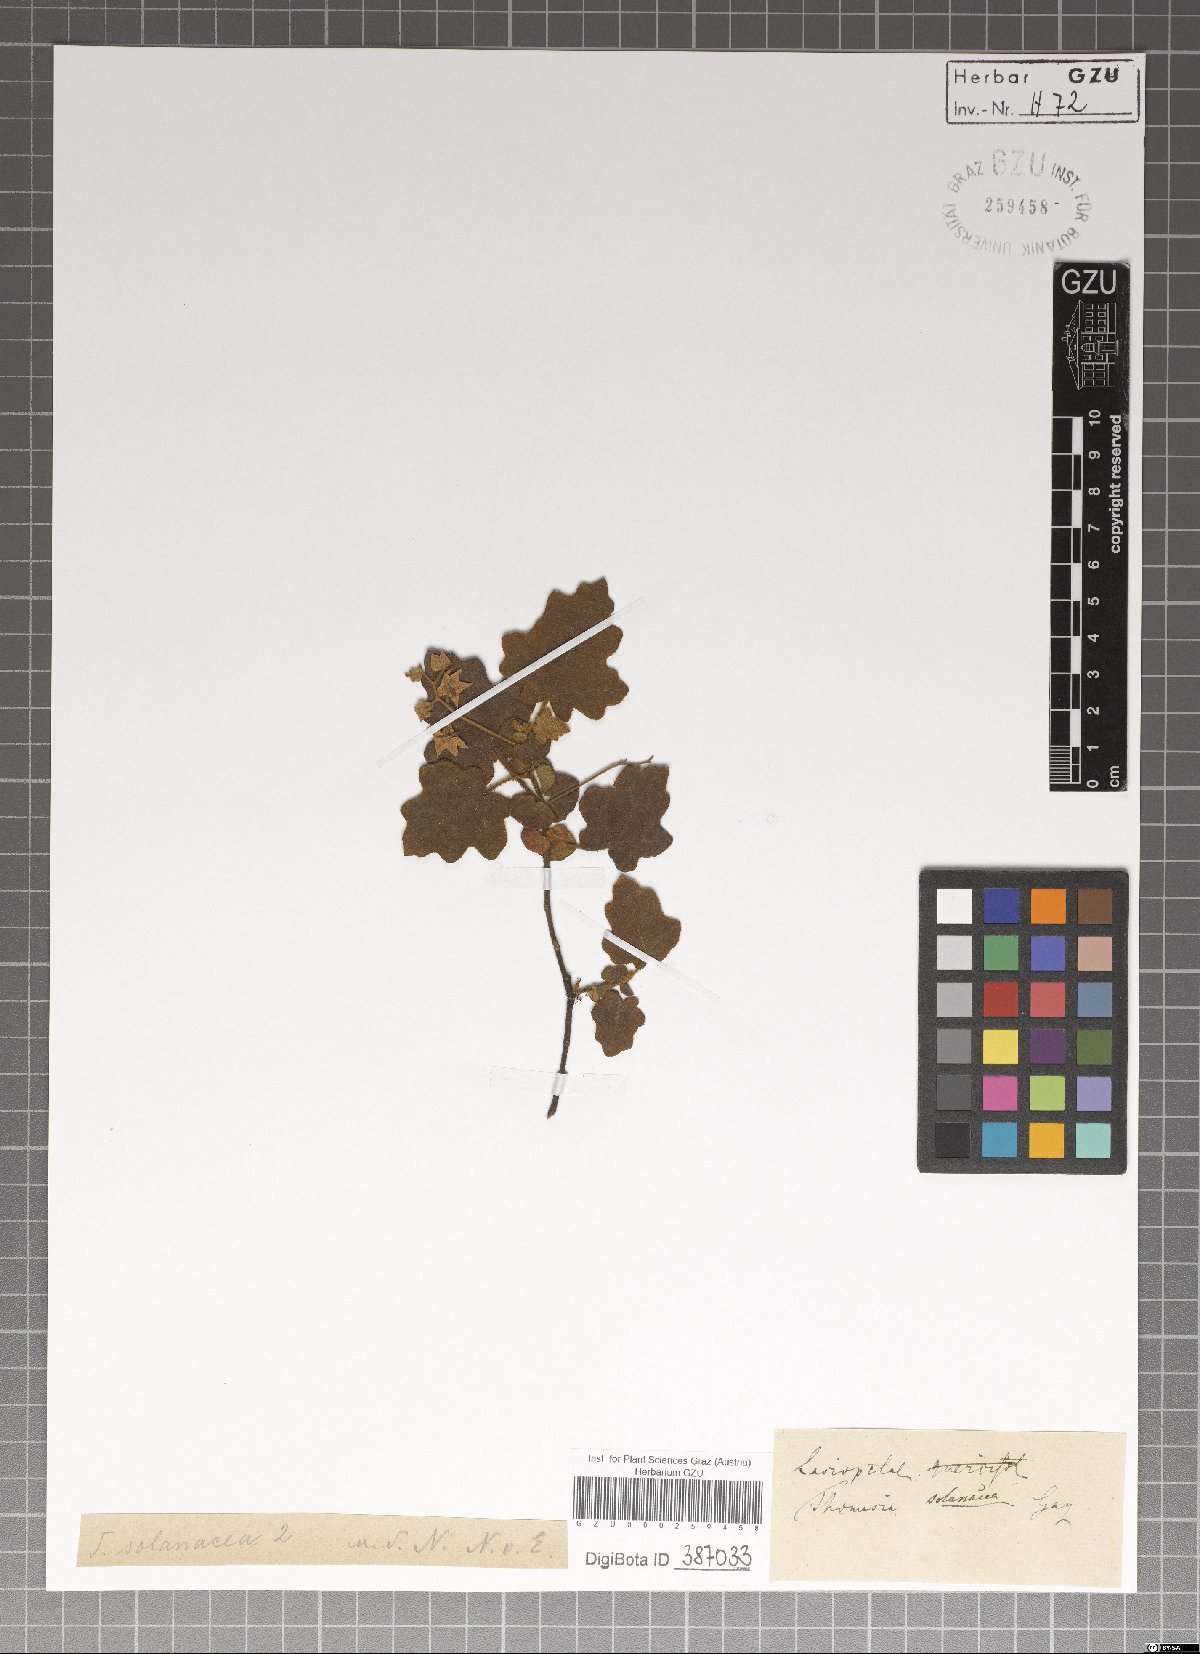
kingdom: Plantae
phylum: Tracheophyta
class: Magnoliopsida
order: Malvales
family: Malvaceae
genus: Thomasia
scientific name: Thomasia solanacea
